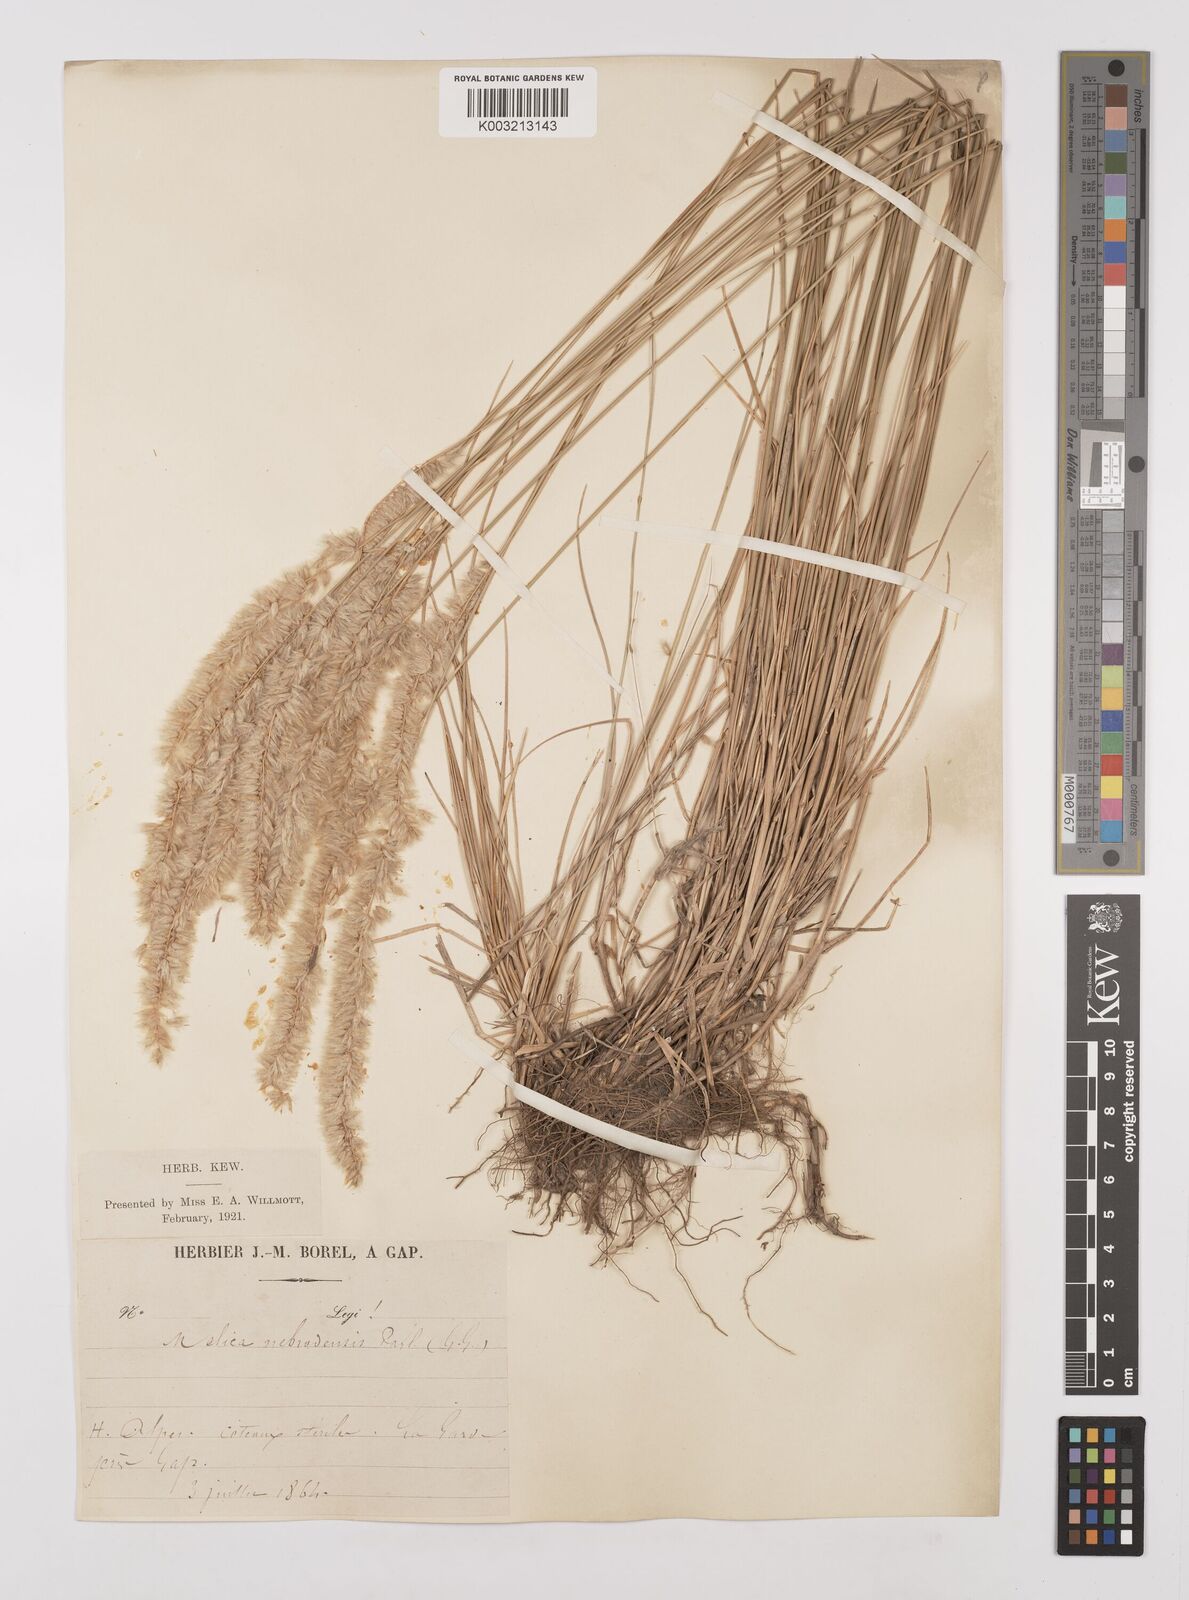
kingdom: Plantae
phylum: Tracheophyta
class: Liliopsida
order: Poales
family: Poaceae
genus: Melica
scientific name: Melica ciliata
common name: Hairy melicgrass
